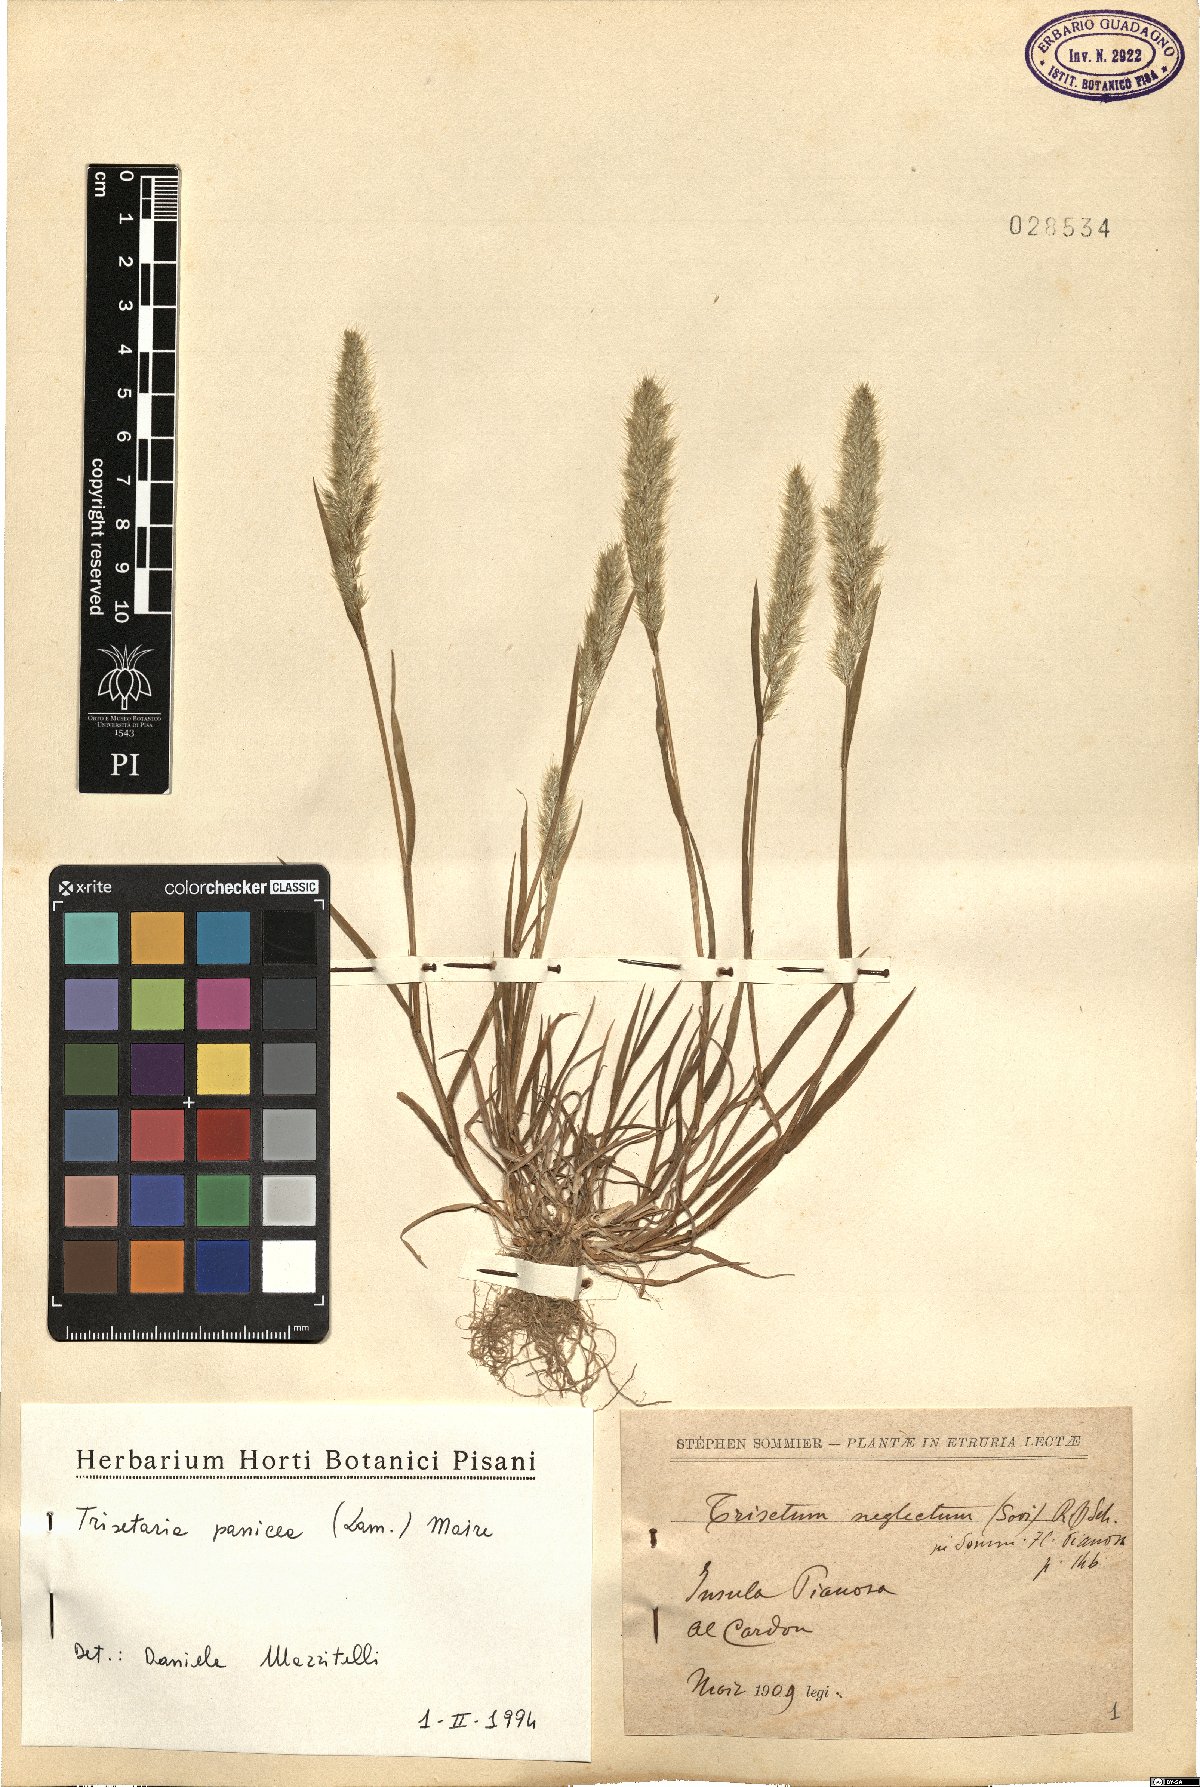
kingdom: Plantae
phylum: Tracheophyta
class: Liliopsida
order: Poales
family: Poaceae
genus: Trisetaria
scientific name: Trisetaria panicea
